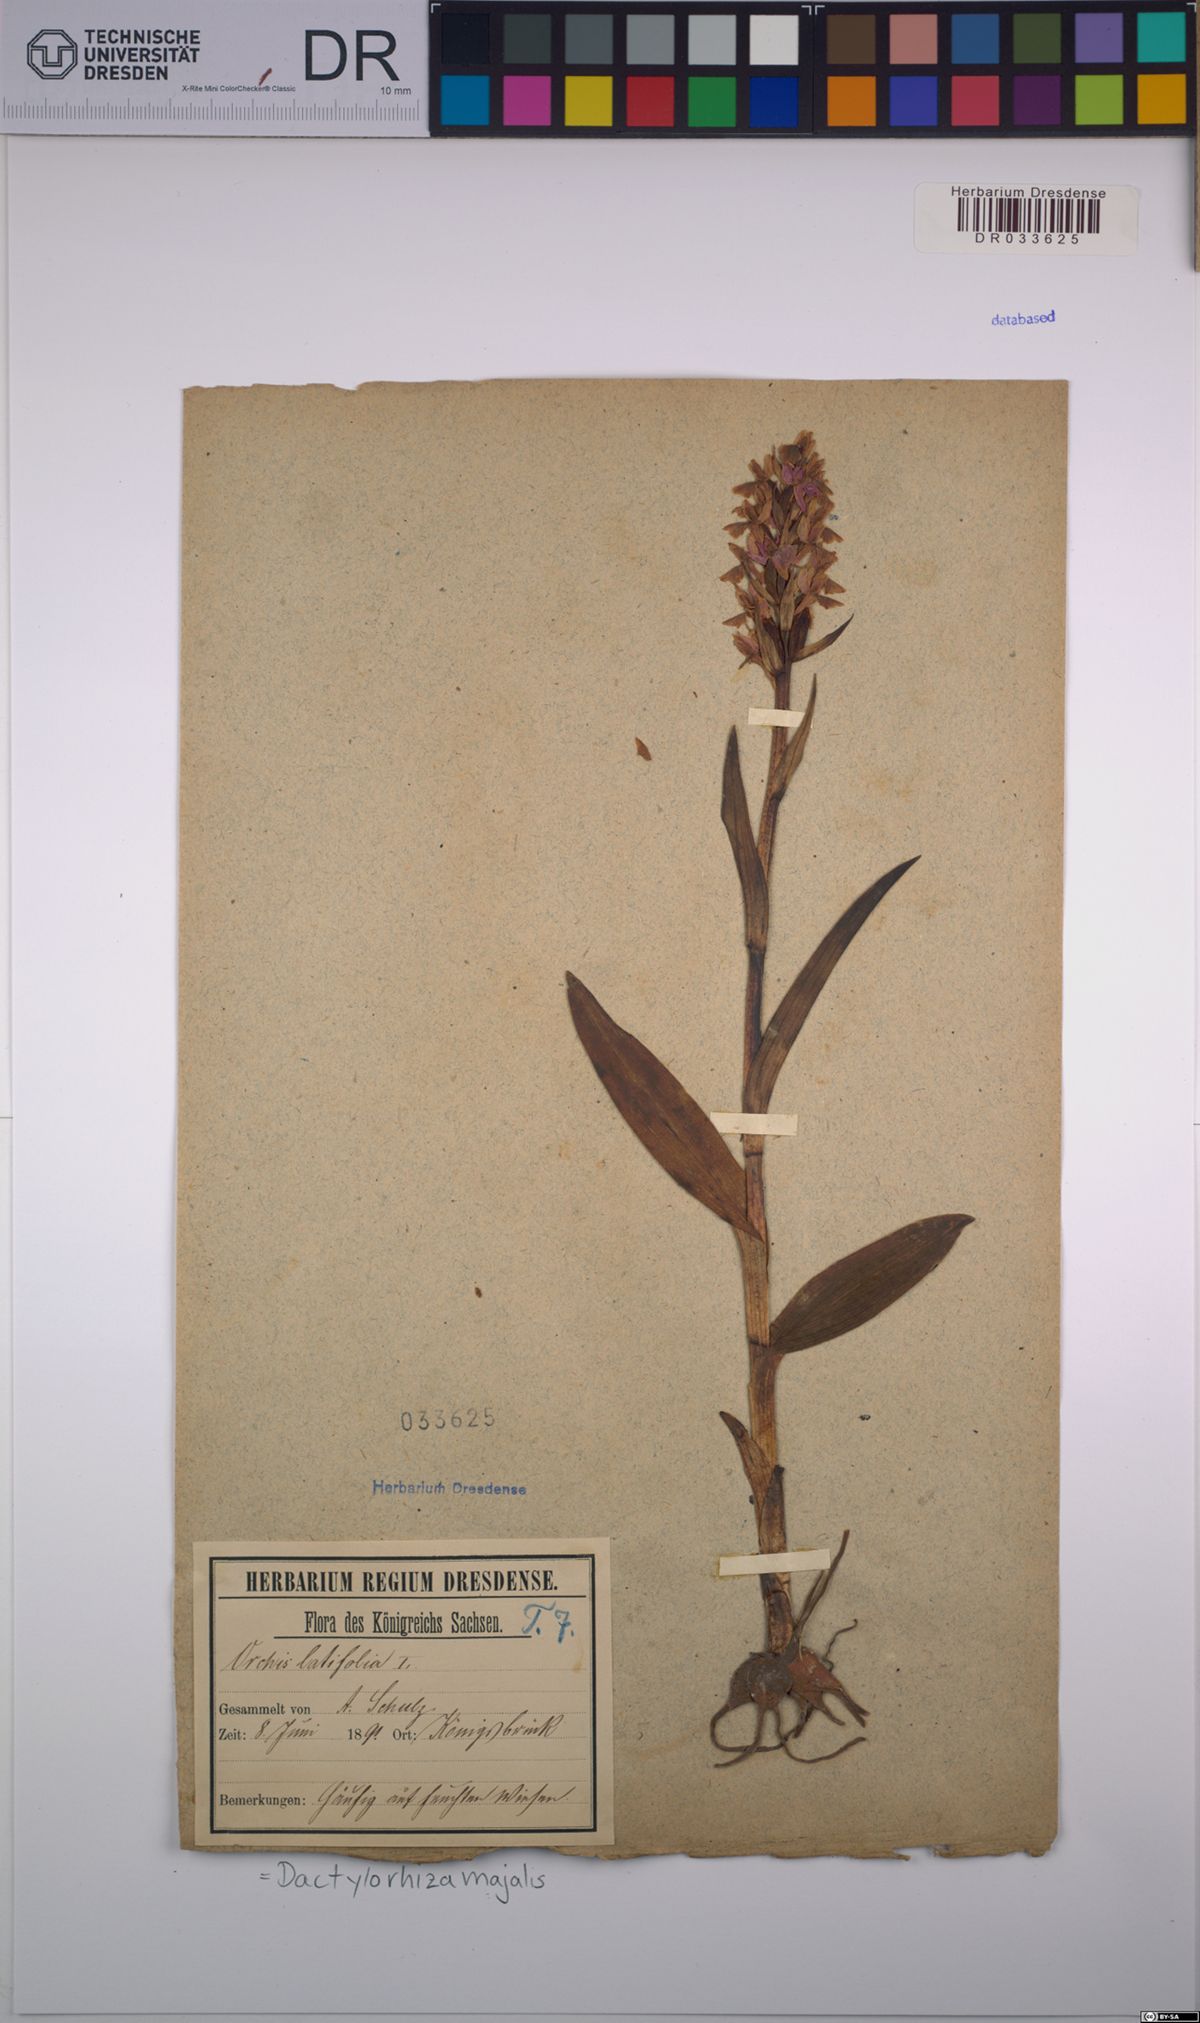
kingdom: Plantae
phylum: Tracheophyta
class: Liliopsida
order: Asparagales
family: Orchidaceae
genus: Dactylorhiza
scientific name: Dactylorhiza majalis
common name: Marsh orchid
